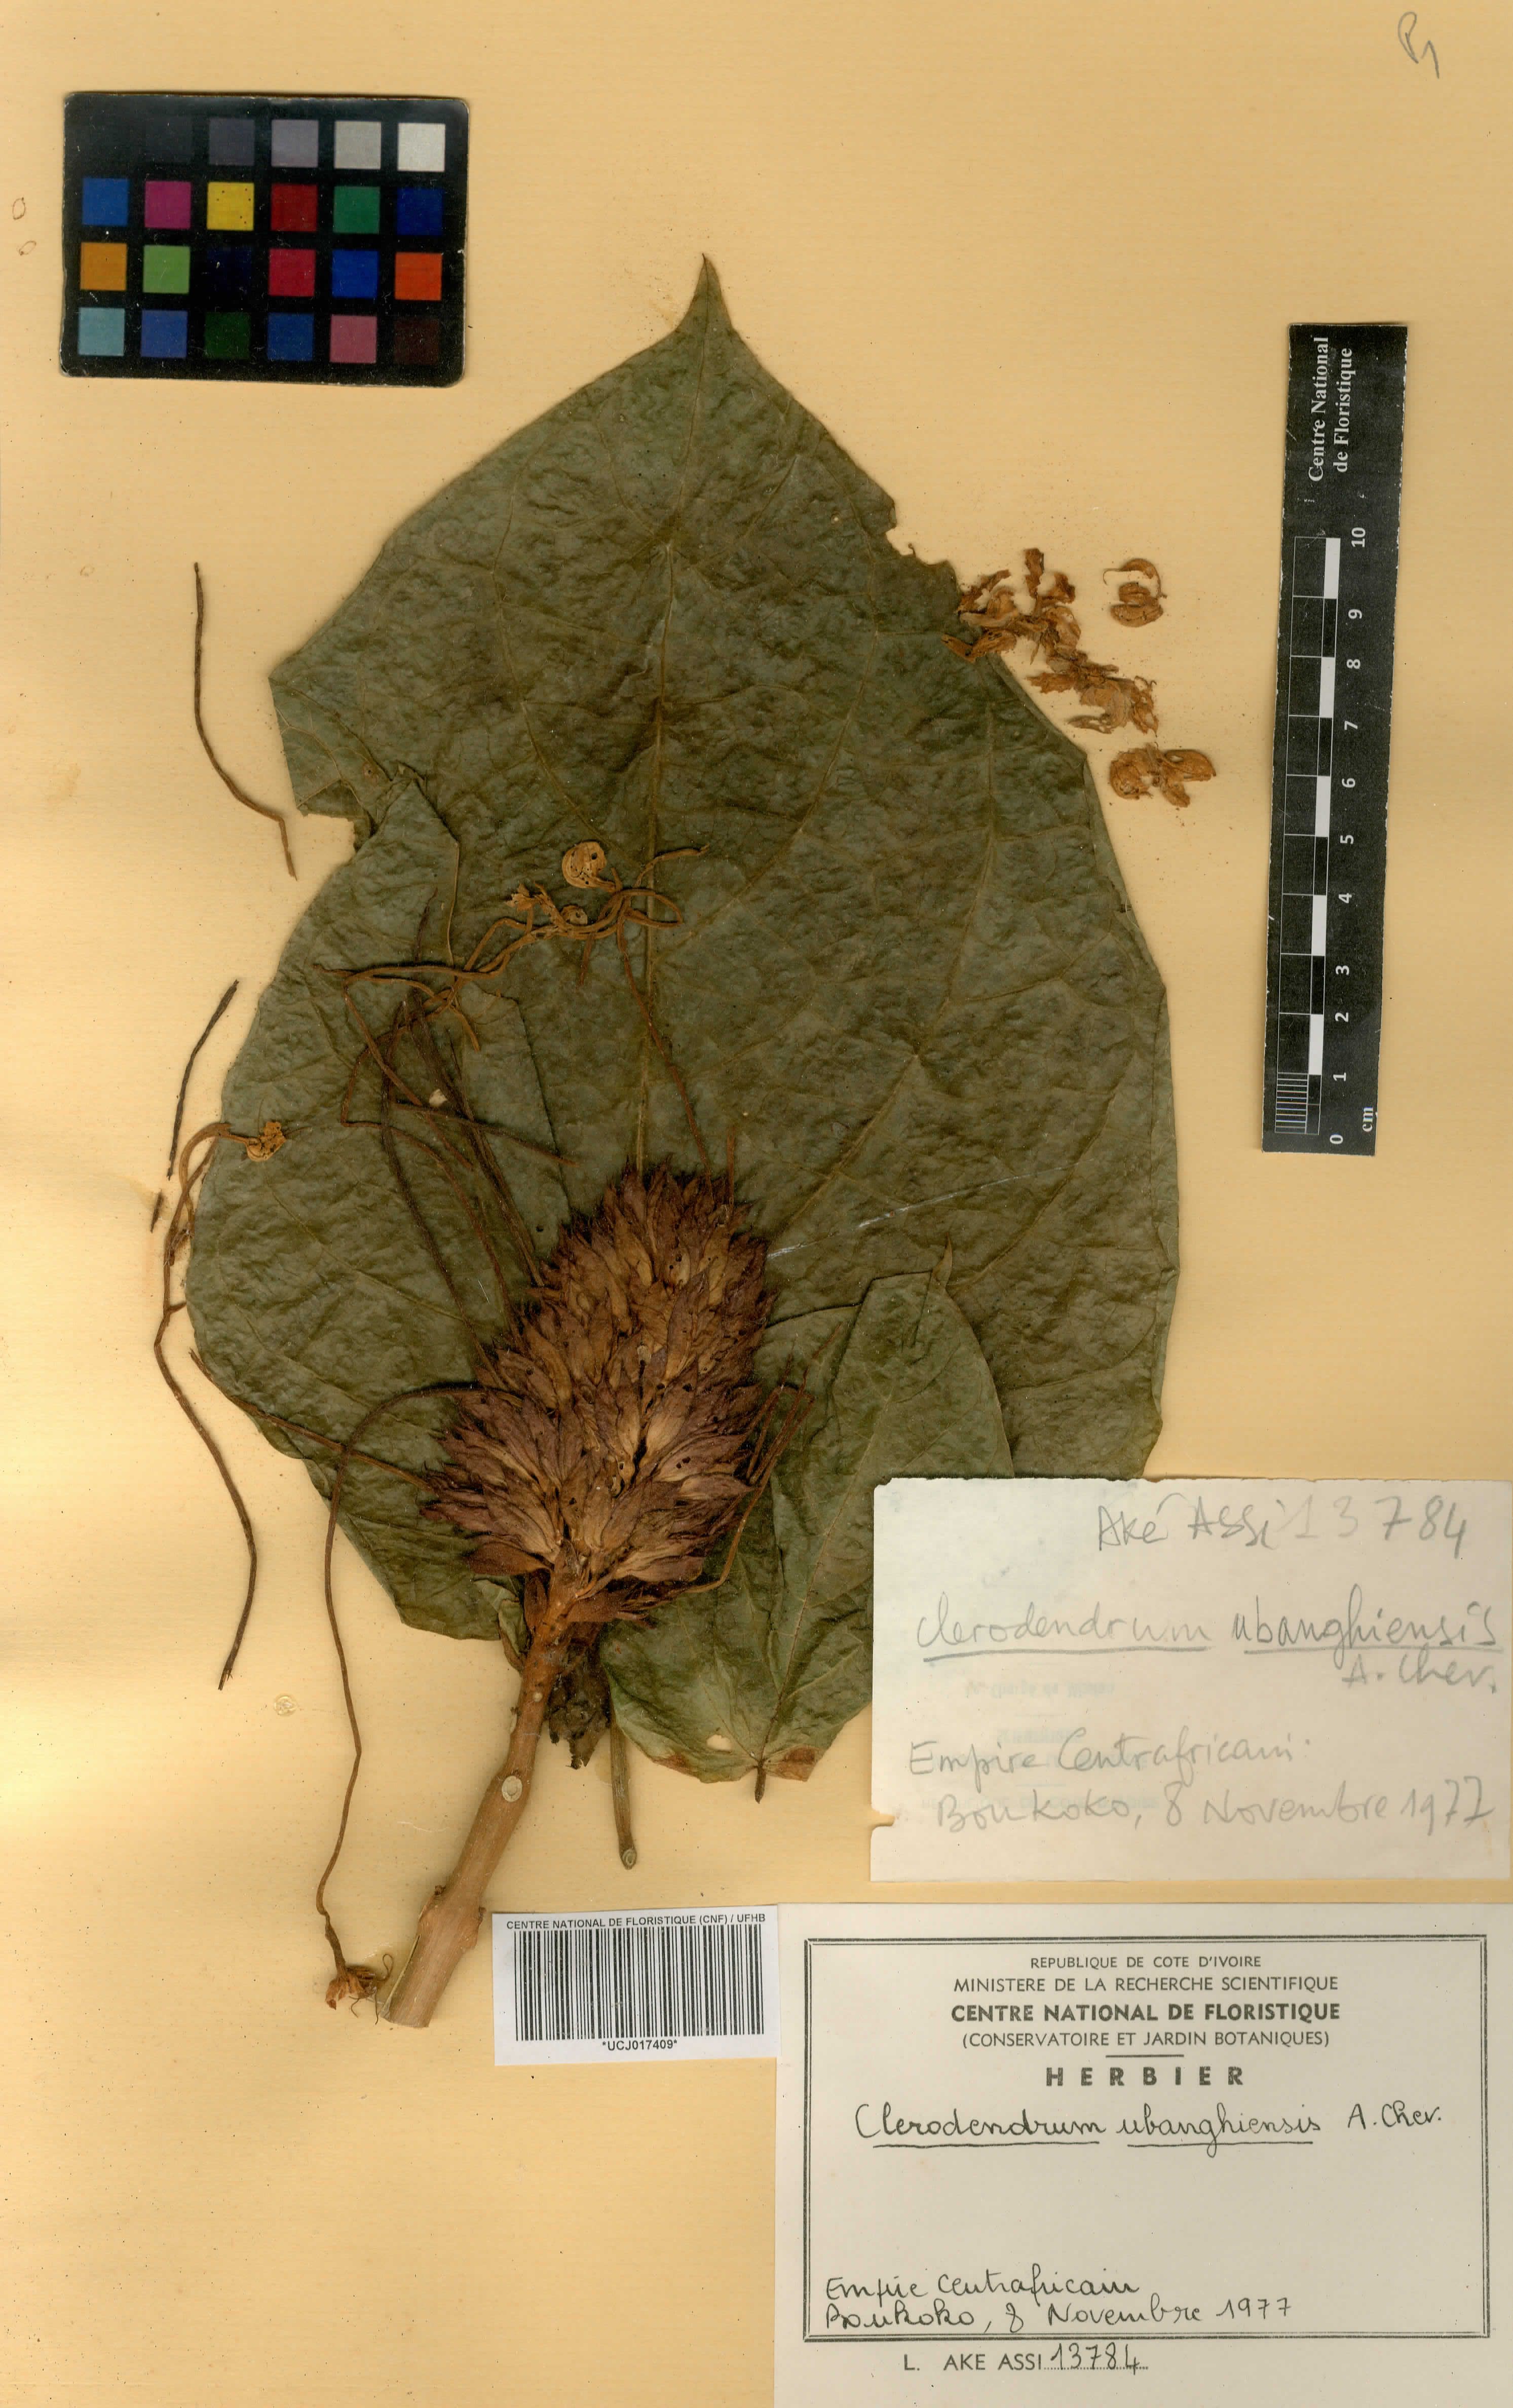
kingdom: Plantae
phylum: Tracheophyta
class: Magnoliopsida
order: Lamiales
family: Verbenaceae
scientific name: Verbenaceae
